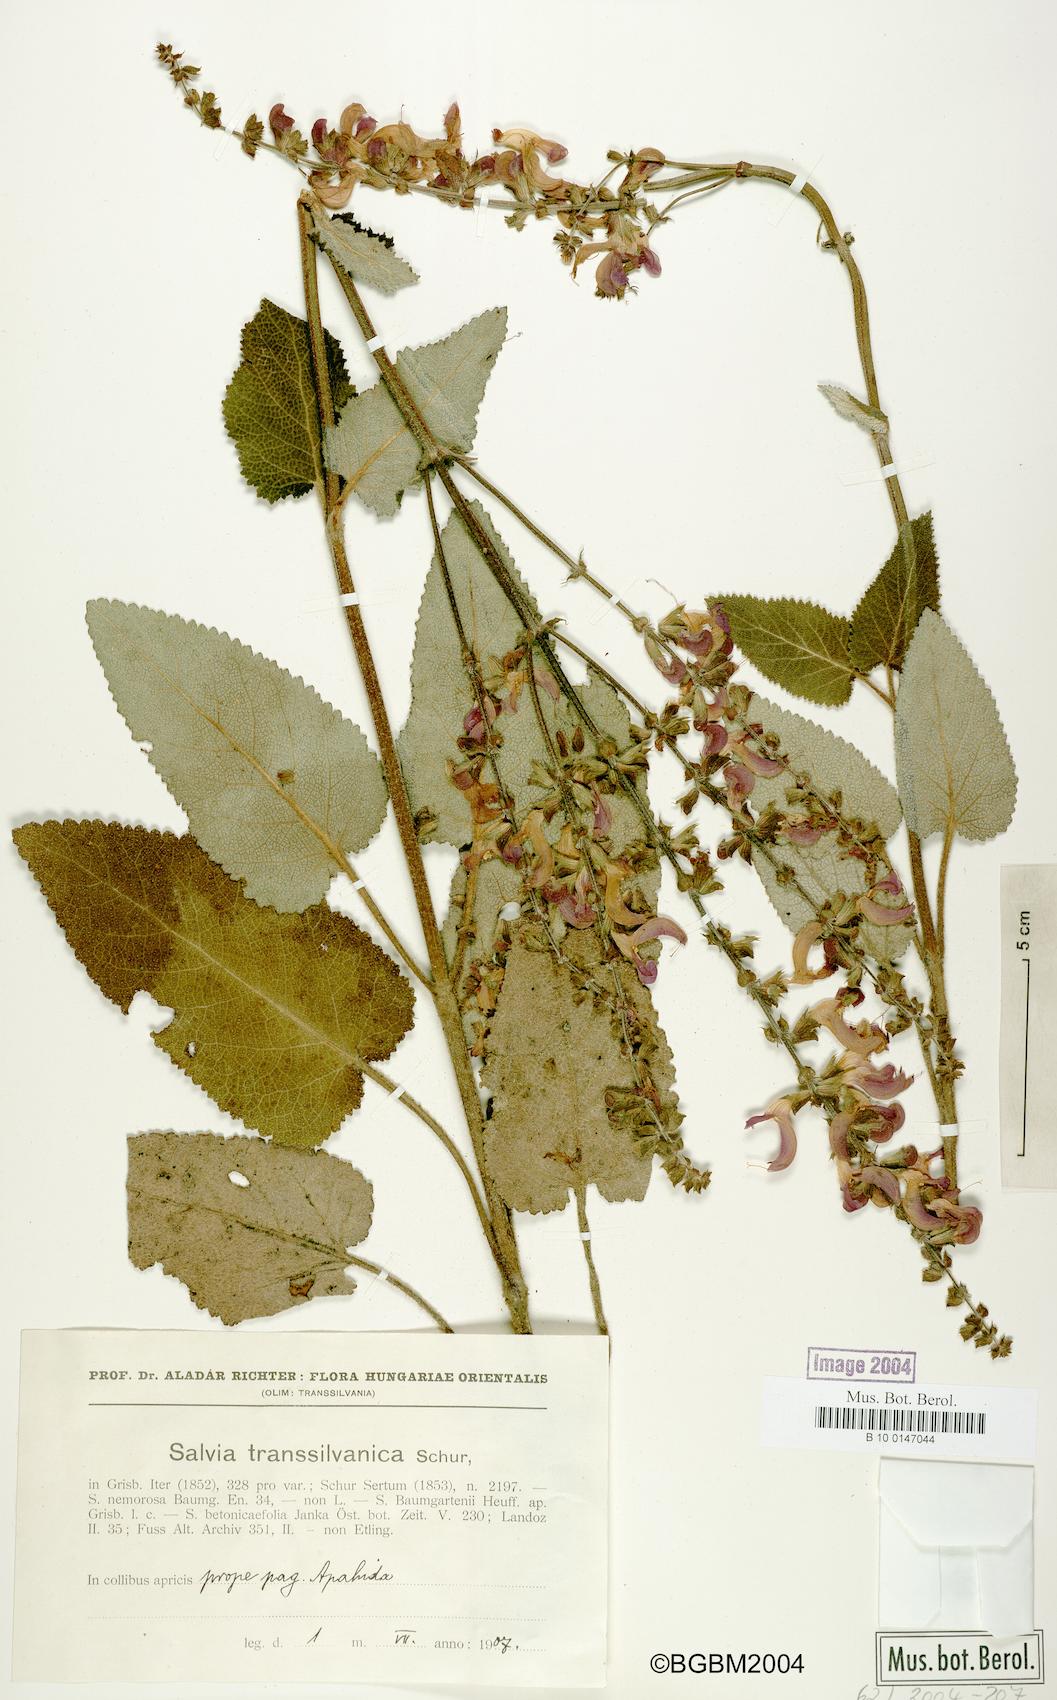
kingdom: Plantae
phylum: Tracheophyta
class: Magnoliopsida
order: Lamiales
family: Lamiaceae
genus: Salvia
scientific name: Salvia transsylvanica
